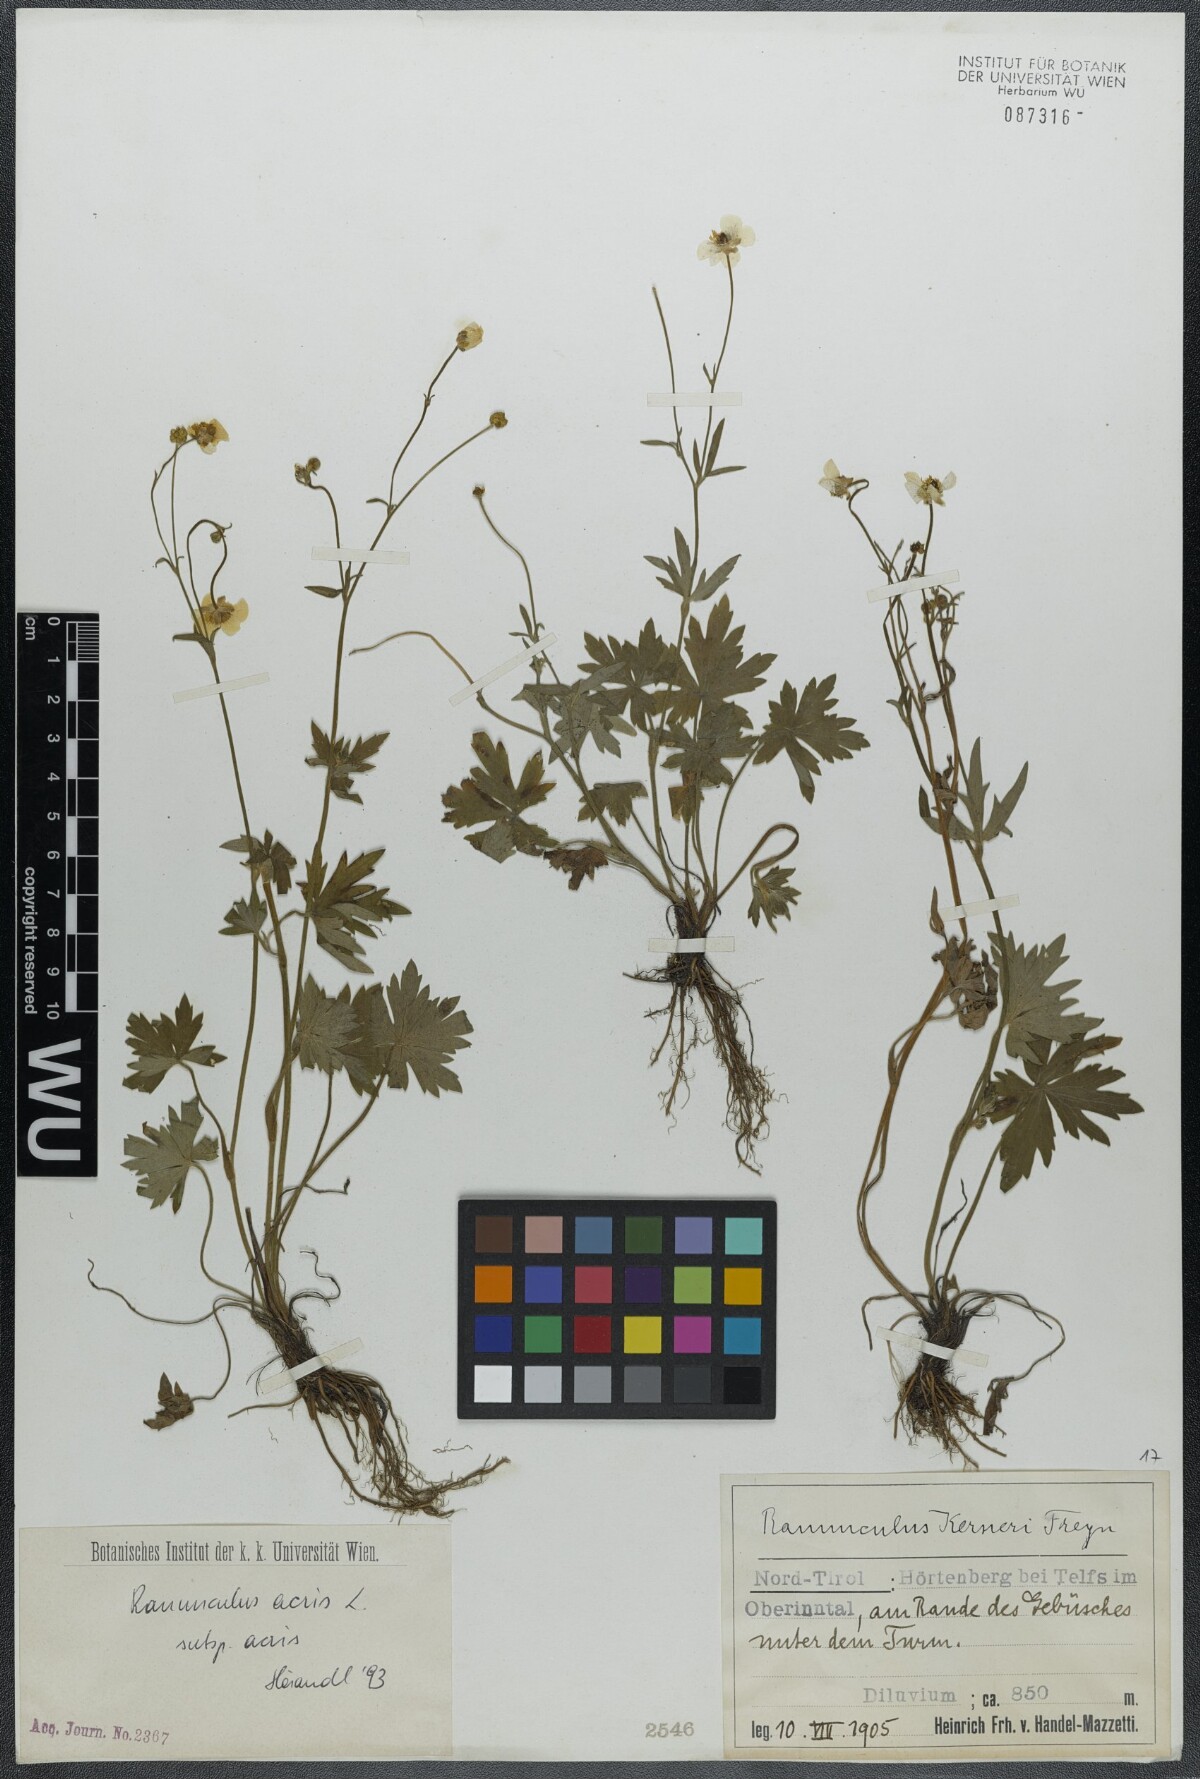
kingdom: Plantae
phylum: Tracheophyta
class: Magnoliopsida
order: Ranunculales
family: Ranunculaceae
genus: Ranunculus
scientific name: Ranunculus acris
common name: Meadow buttercup
